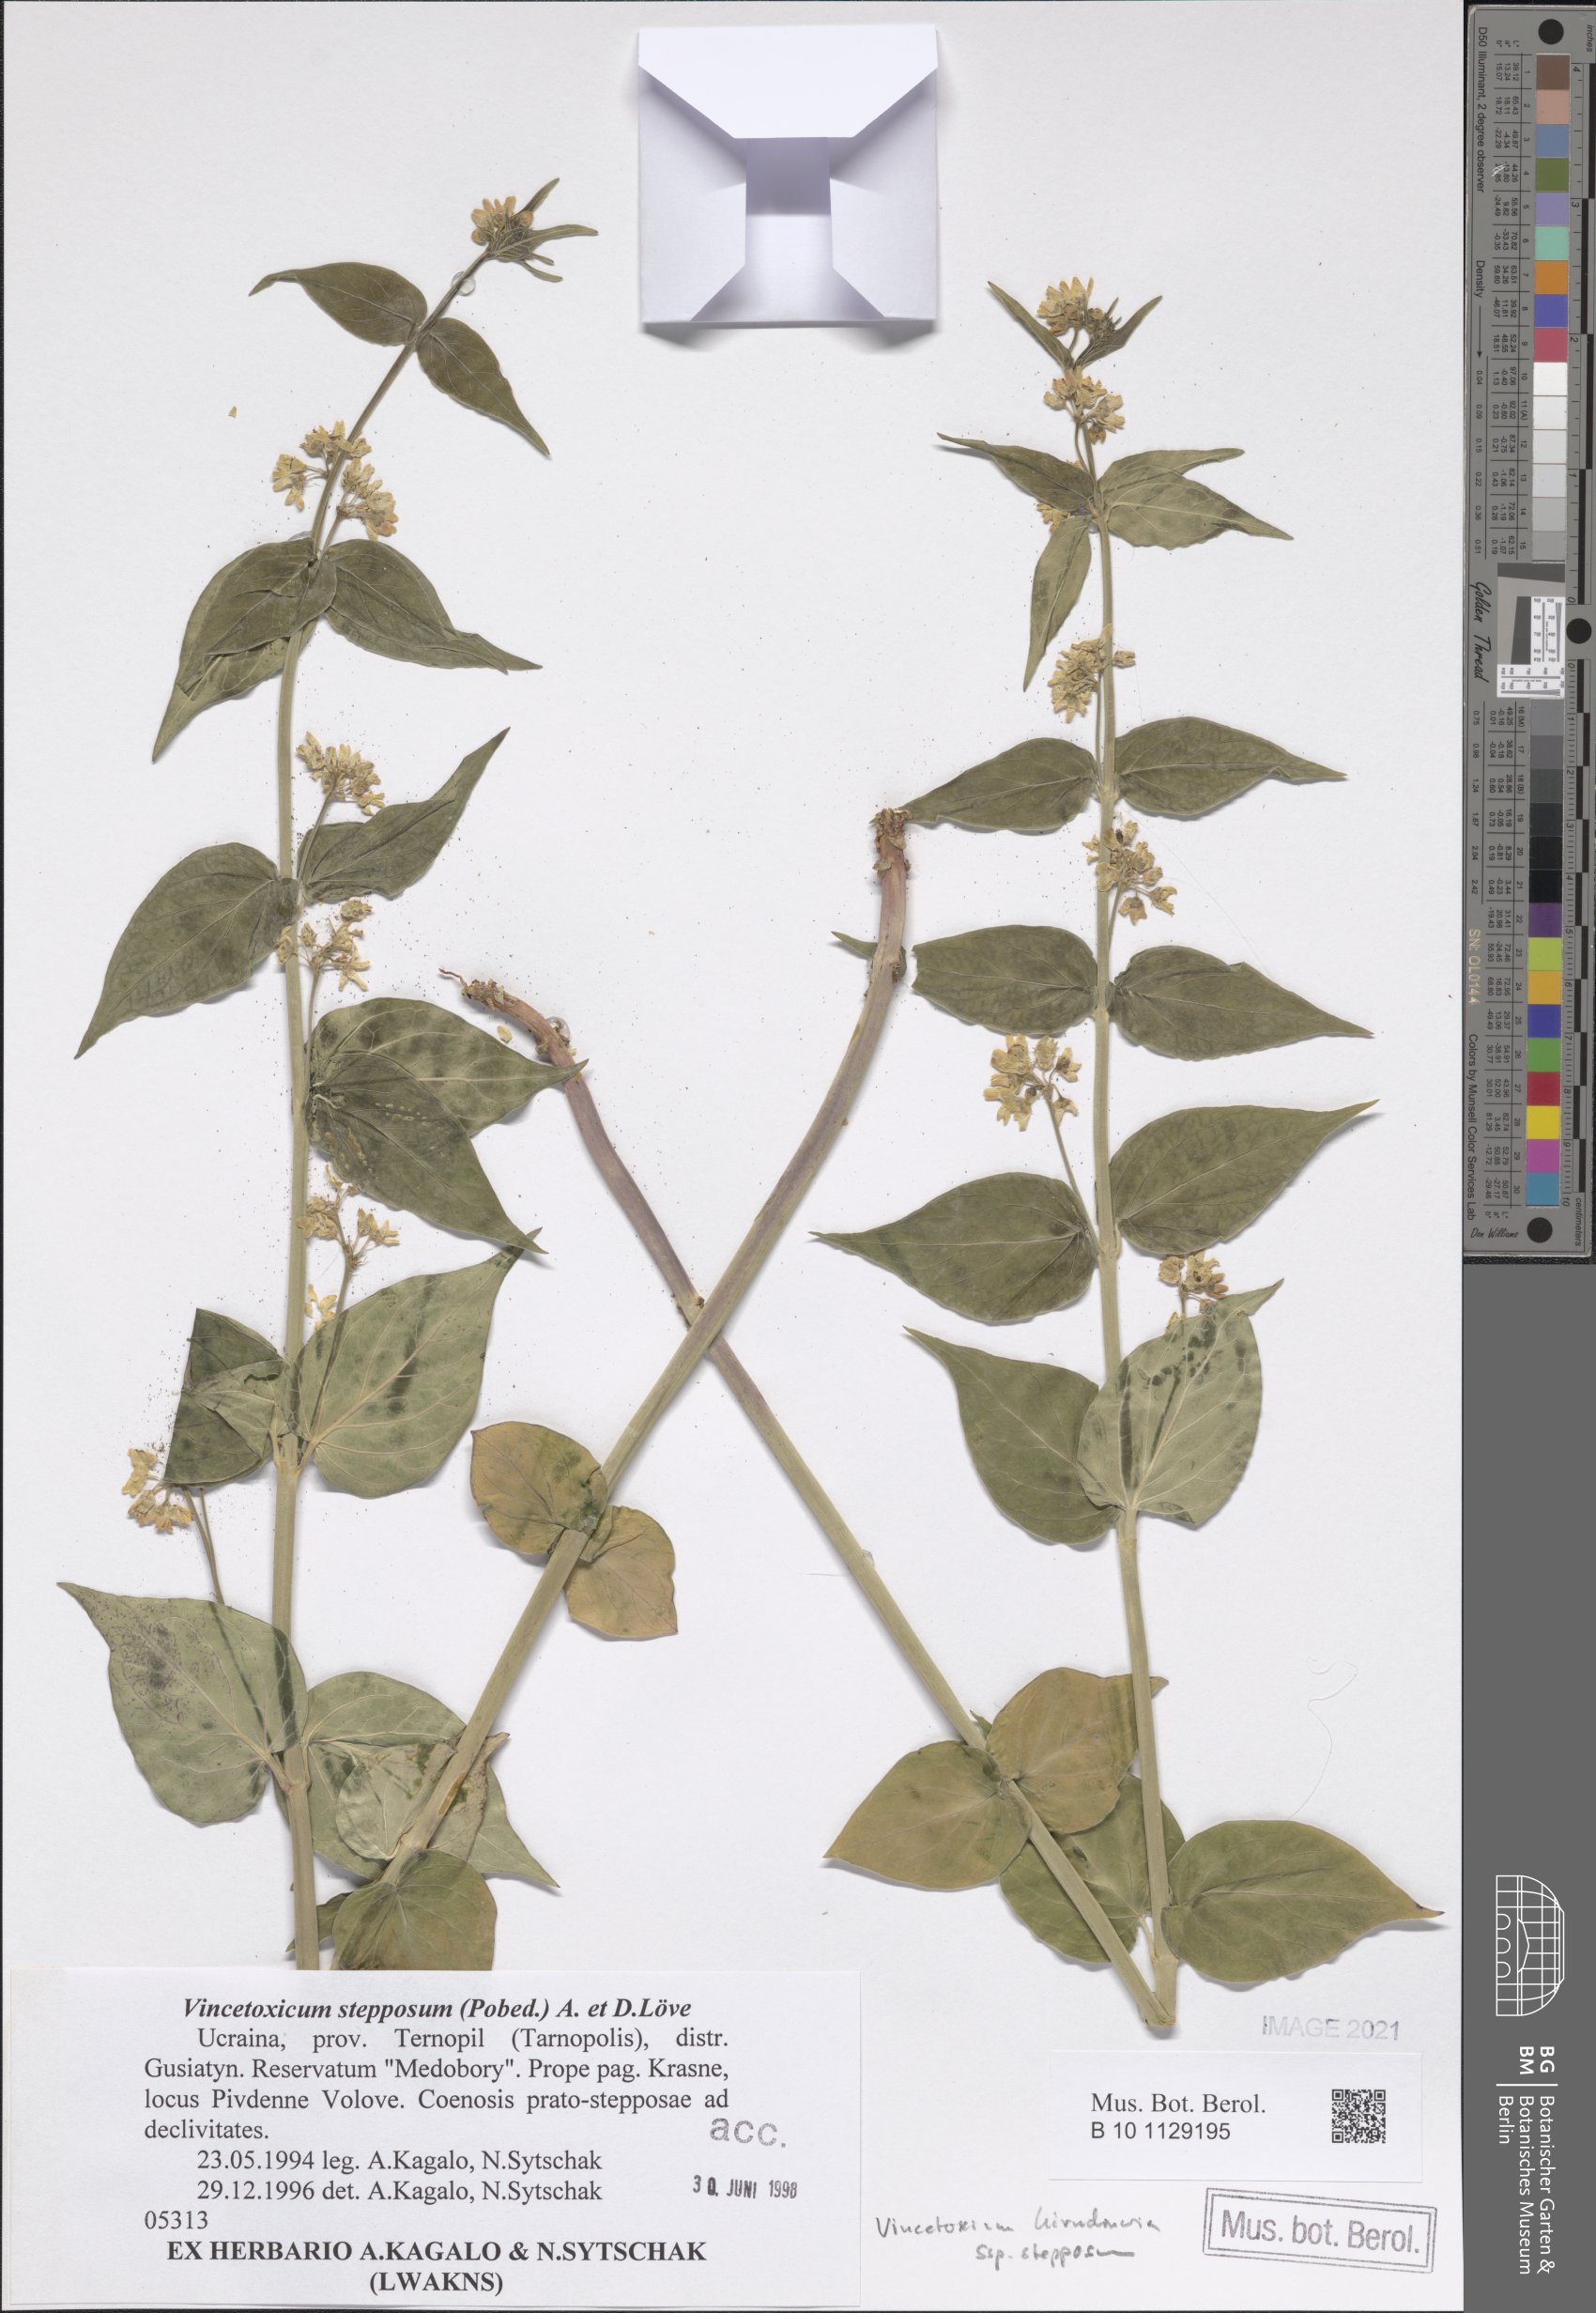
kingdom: Plantae
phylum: Tracheophyta
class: Magnoliopsida
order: Gentianales
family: Apocynaceae
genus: Vincetoxicum
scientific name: Vincetoxicum hirundinaria
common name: White swallowwort
